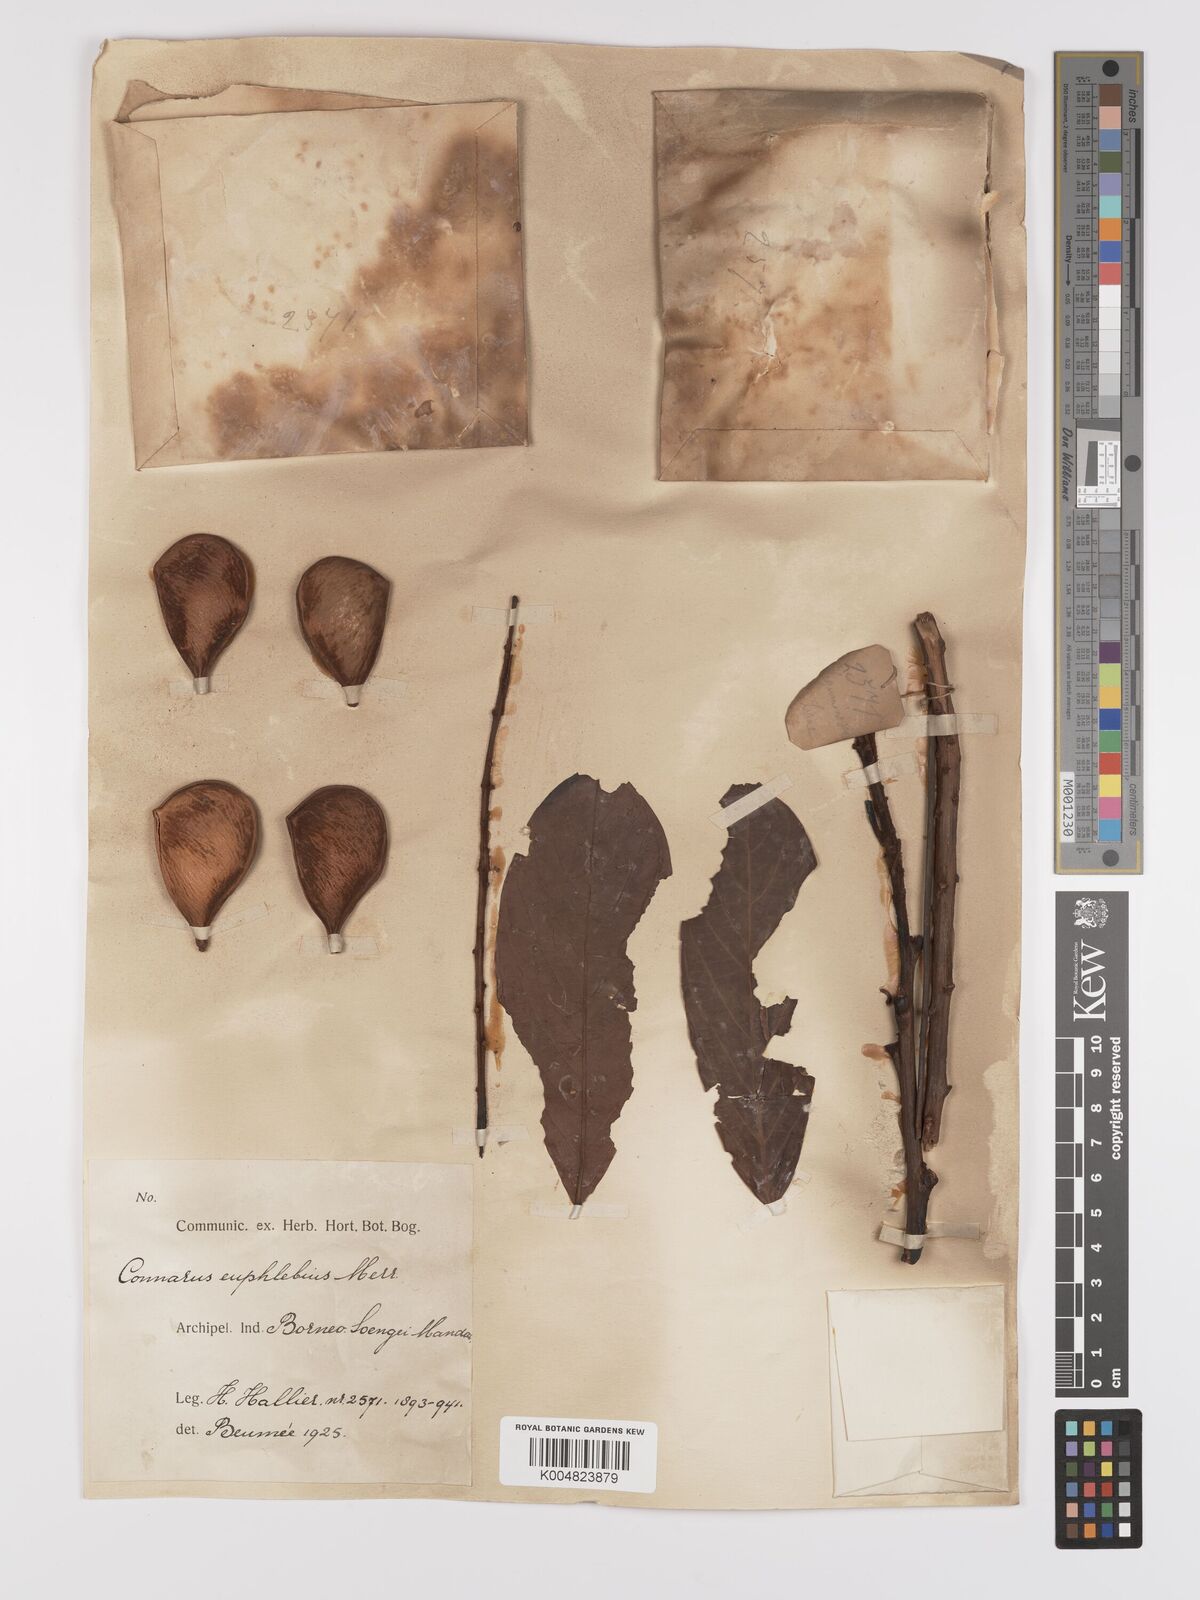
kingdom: Plantae
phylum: Tracheophyta
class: Magnoliopsida
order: Oxalidales
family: Connaraceae
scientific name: Connaraceae
